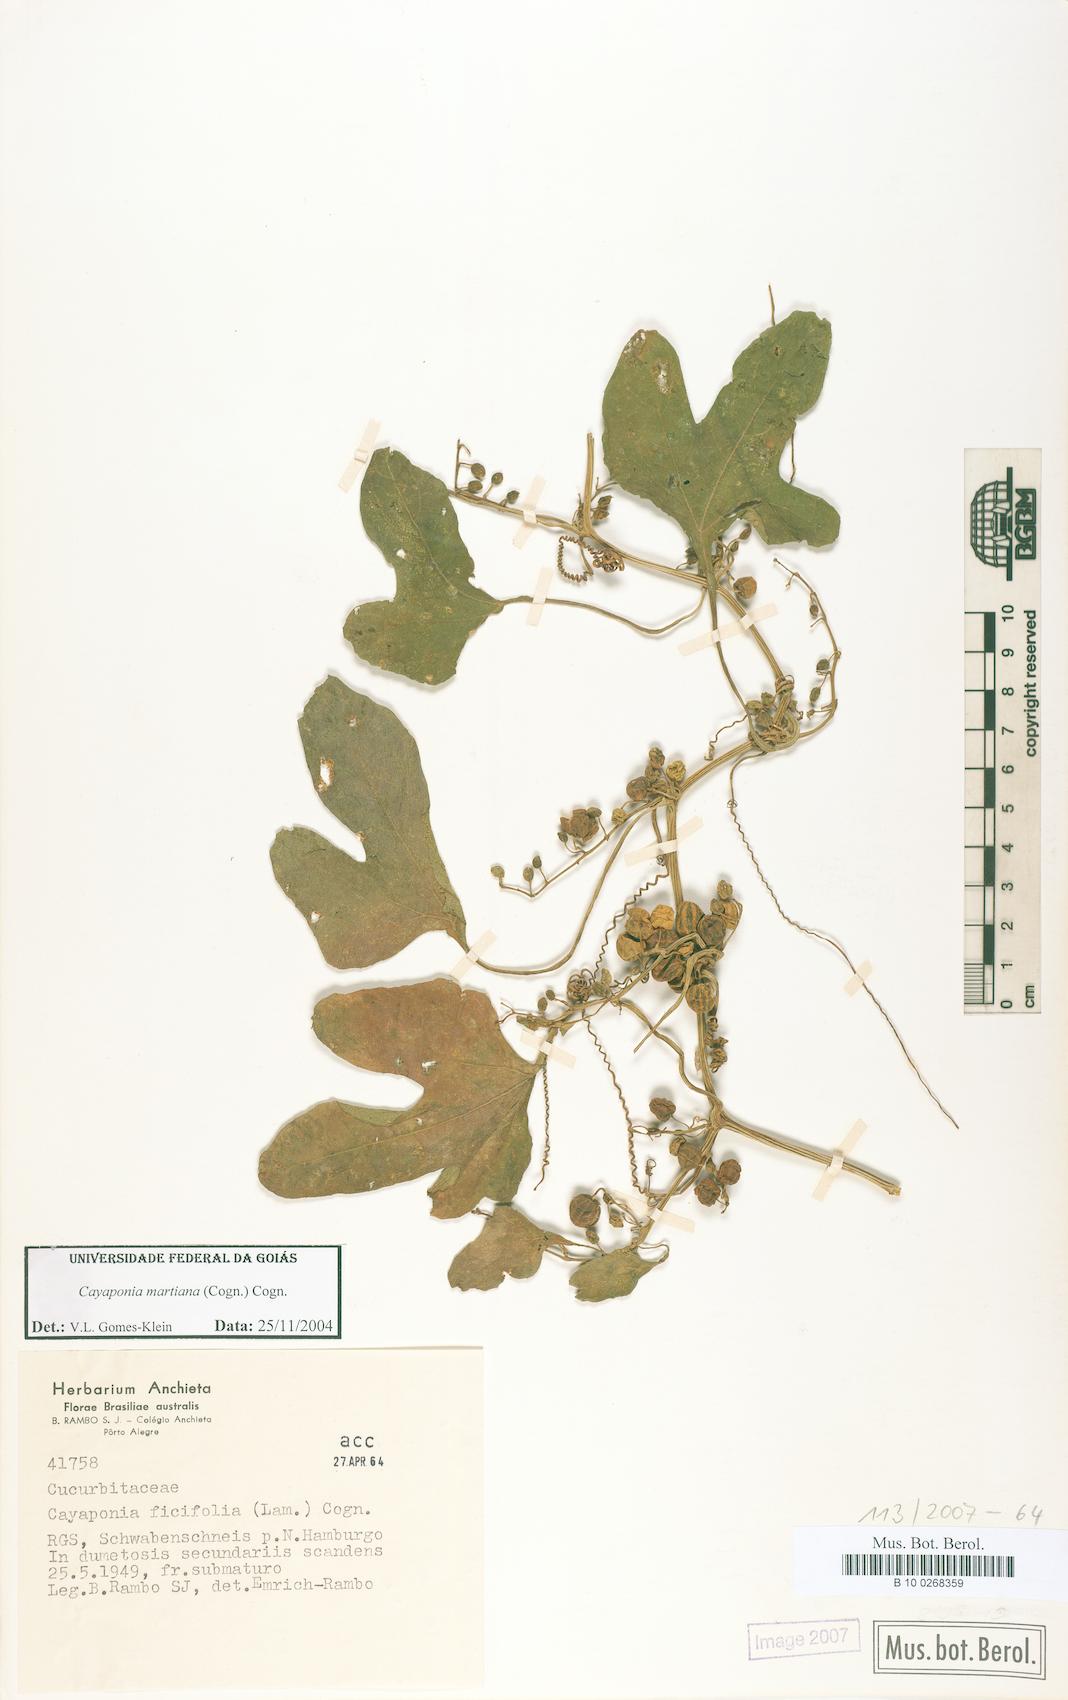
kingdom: Plantae
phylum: Tracheophyta
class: Magnoliopsida
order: Cucurbitales
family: Cucurbitaceae
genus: Cayaponia
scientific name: Cayaponia martiana
